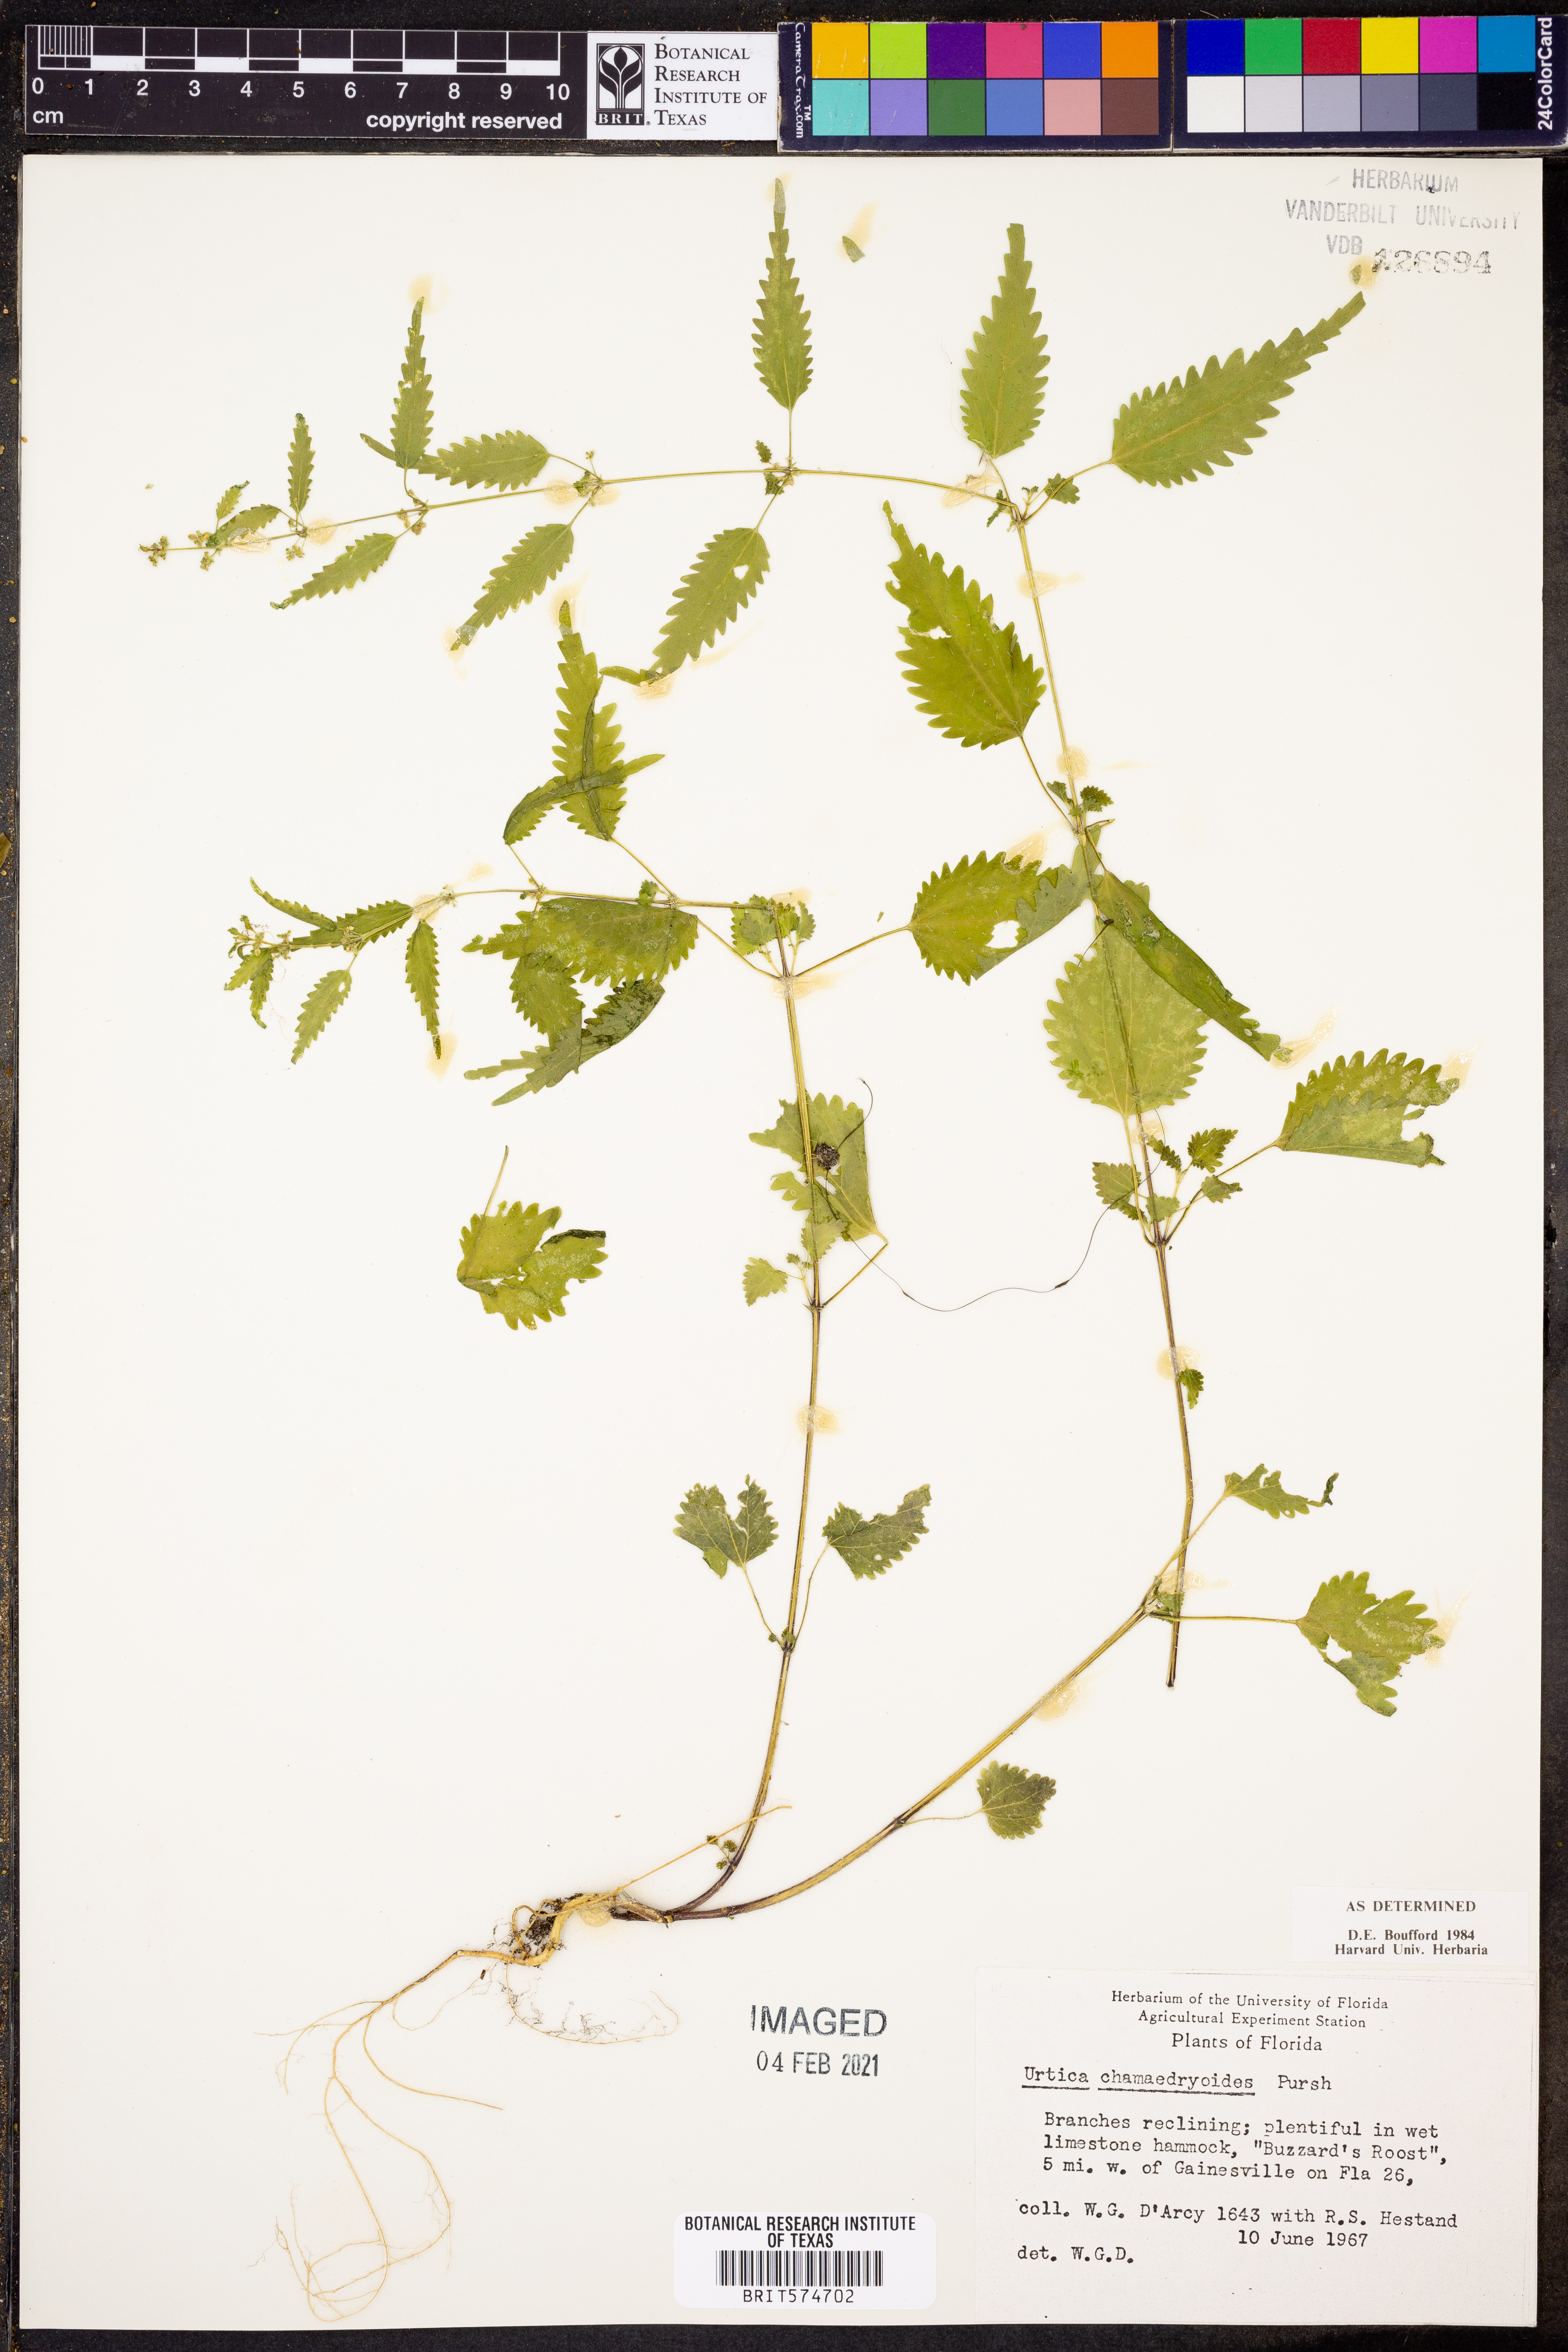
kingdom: Plantae
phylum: Tracheophyta
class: Magnoliopsida
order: Rosales
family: Urticaceae
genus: Urtica
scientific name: Urtica chamaedryoides
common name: Heart-leaf nettle
